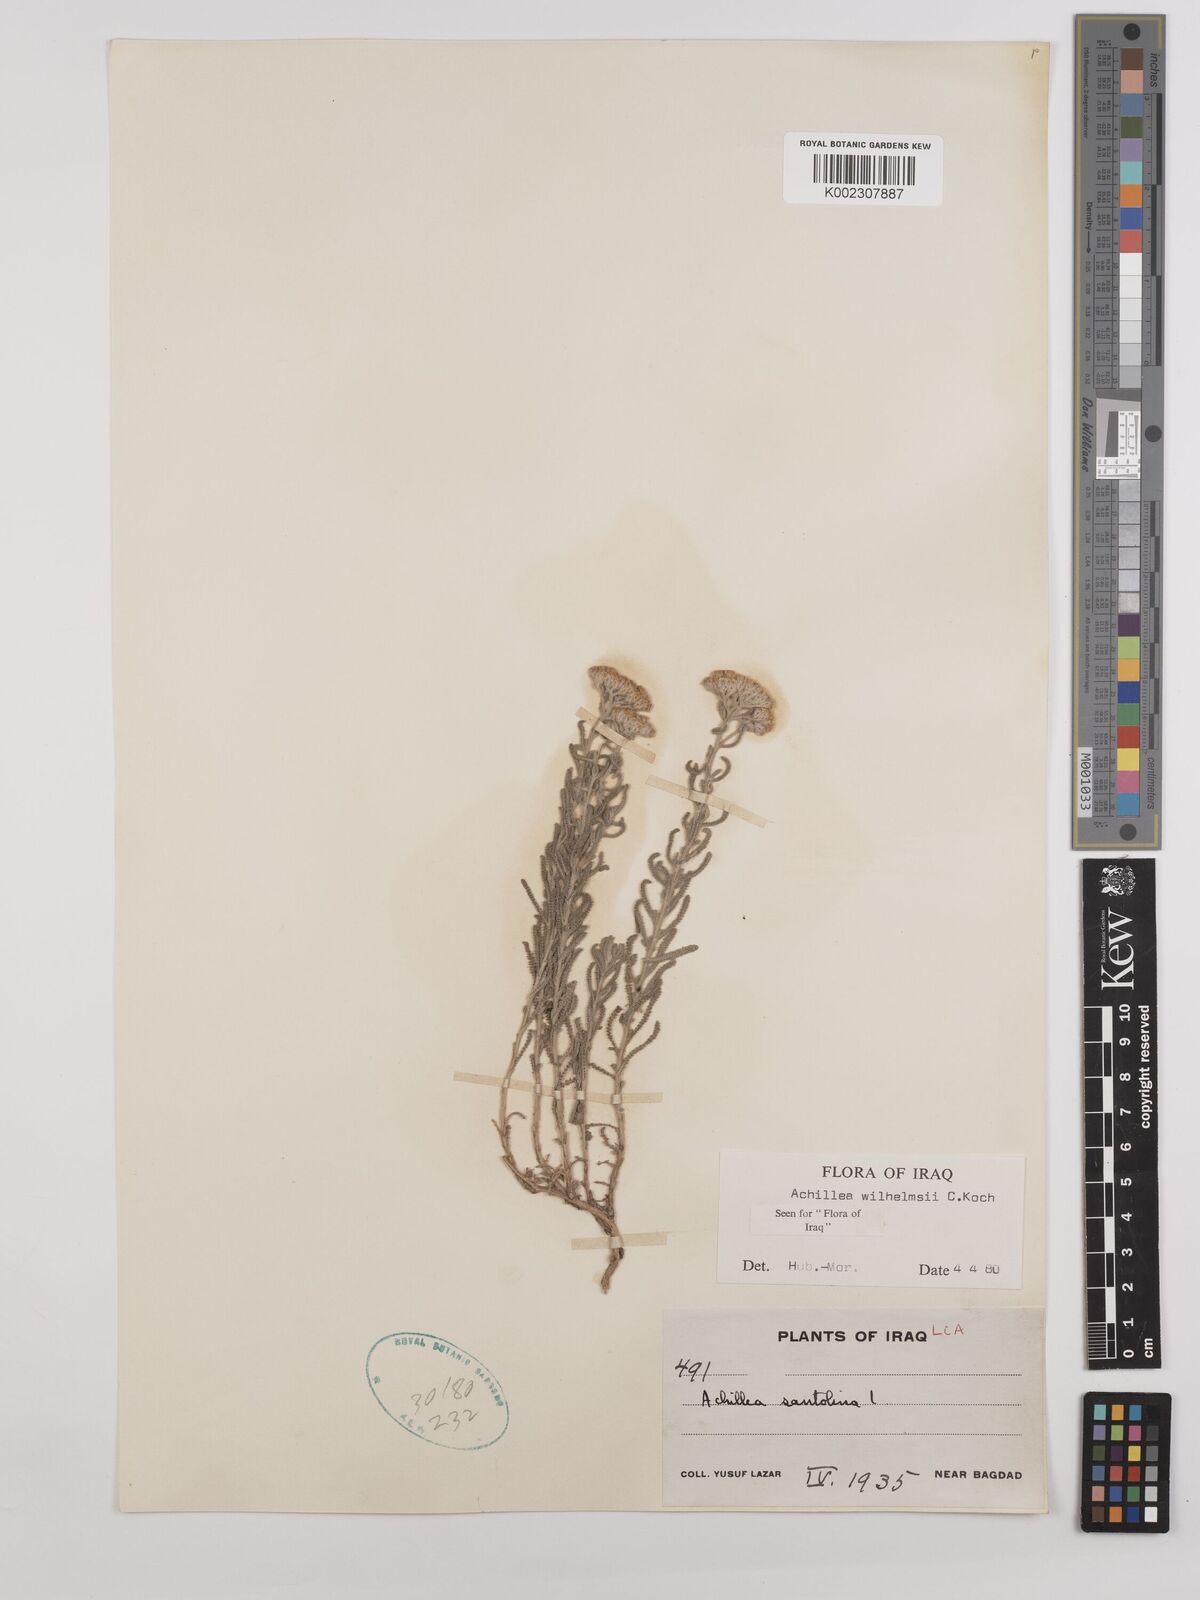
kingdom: Plantae
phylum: Tracheophyta
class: Magnoliopsida
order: Asterales
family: Asteraceae
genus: Achillea
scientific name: Achillea wilhelmsii
